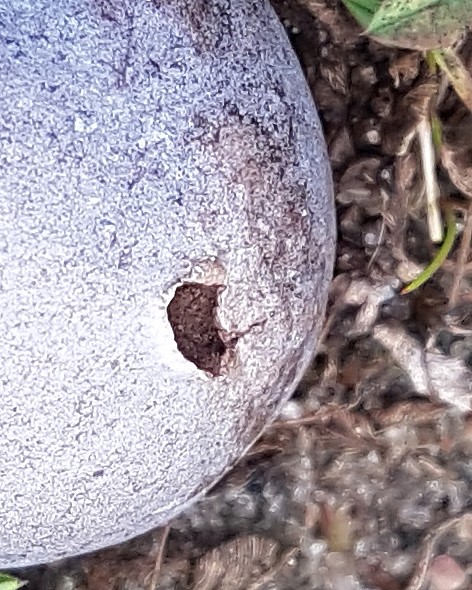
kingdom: Fungi
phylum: Basidiomycota
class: Agaricomycetes
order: Agaricales
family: Lycoperdaceae
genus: Bovista
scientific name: Bovista plumbea
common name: blygrå bovist
